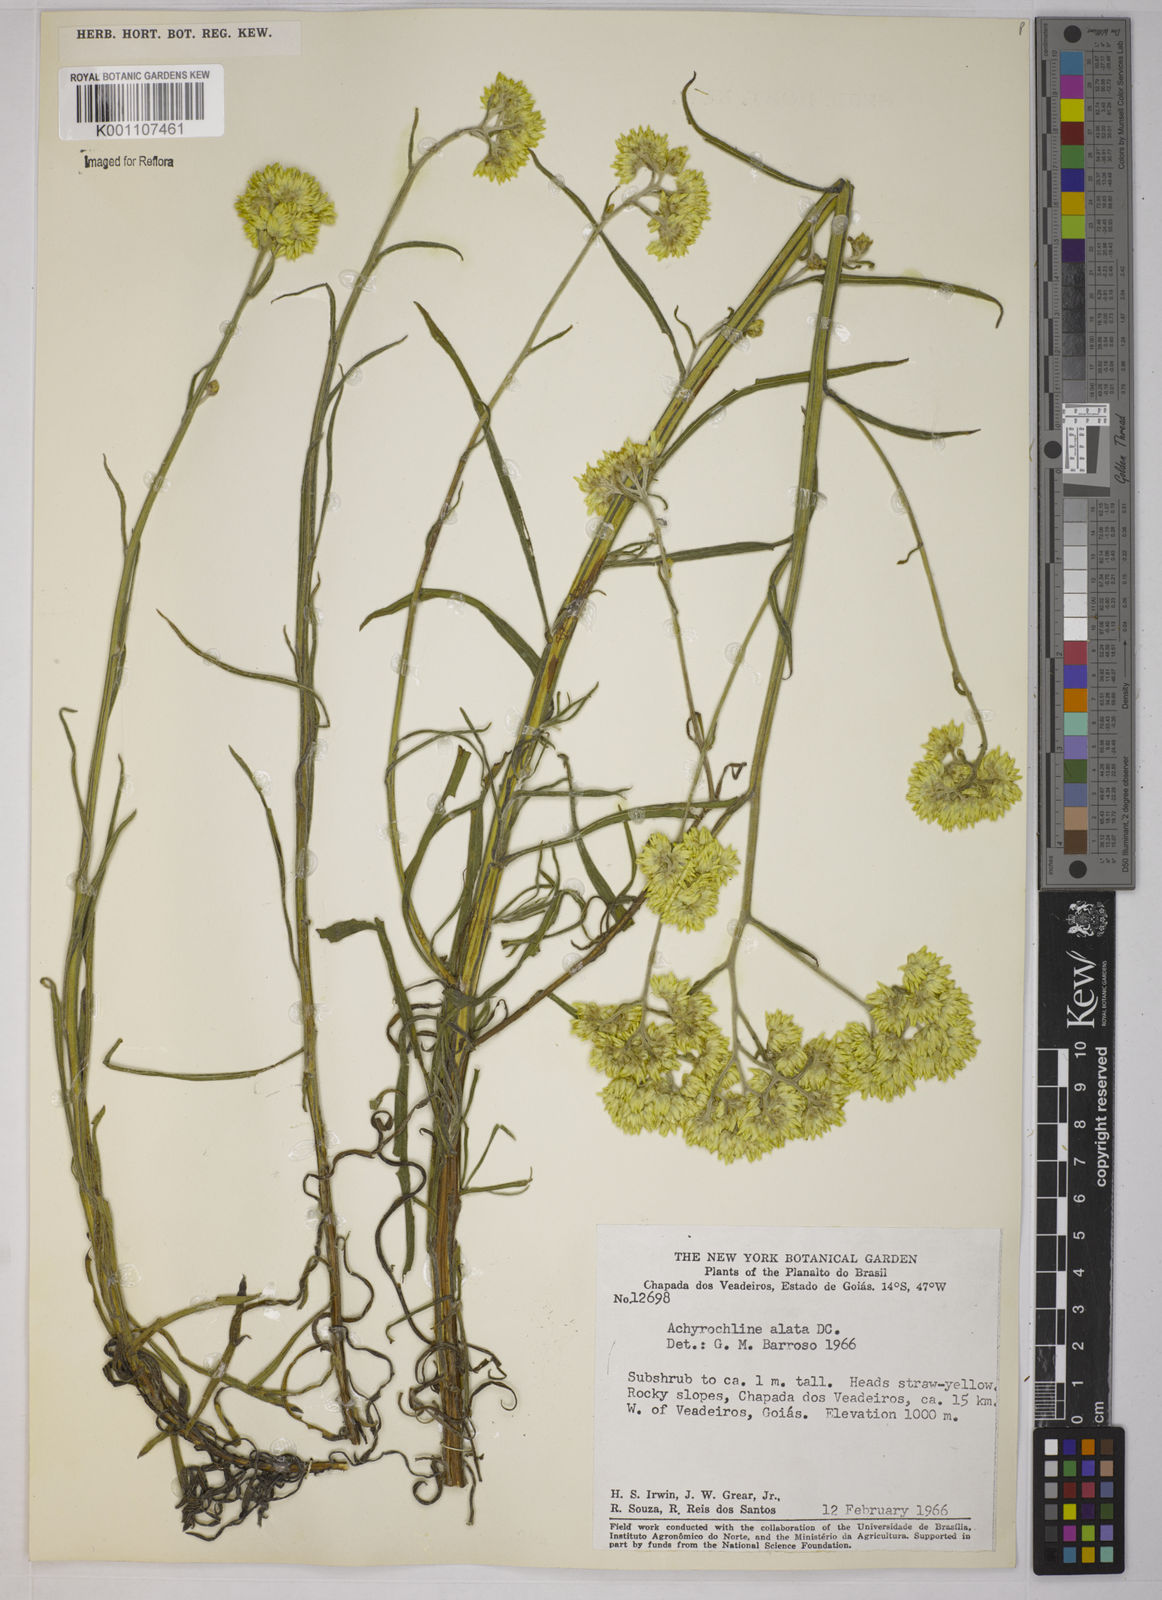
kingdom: Plantae
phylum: Tracheophyta
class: Magnoliopsida
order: Asterales
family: Asteraceae
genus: Achyrocline
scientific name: Achyrocline alata
